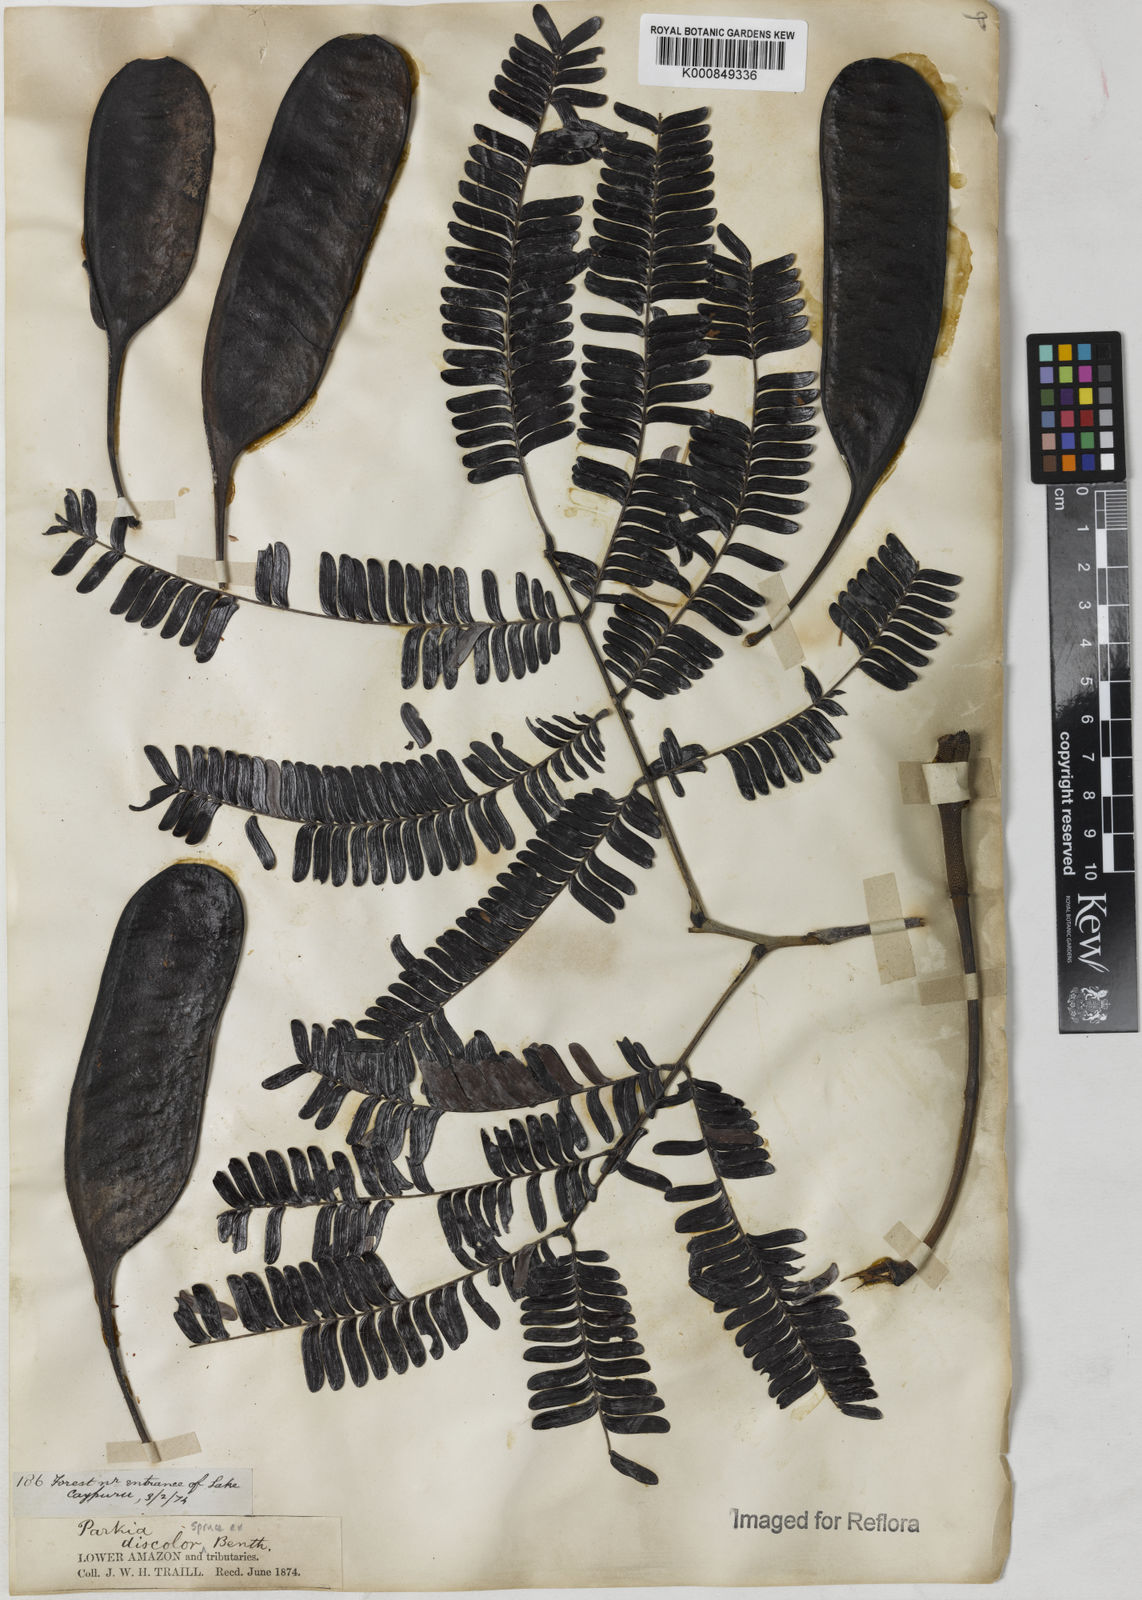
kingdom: Plantae
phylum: Tracheophyta
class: Magnoliopsida
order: Fabales
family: Fabaceae
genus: Parkia
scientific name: Parkia discolor
